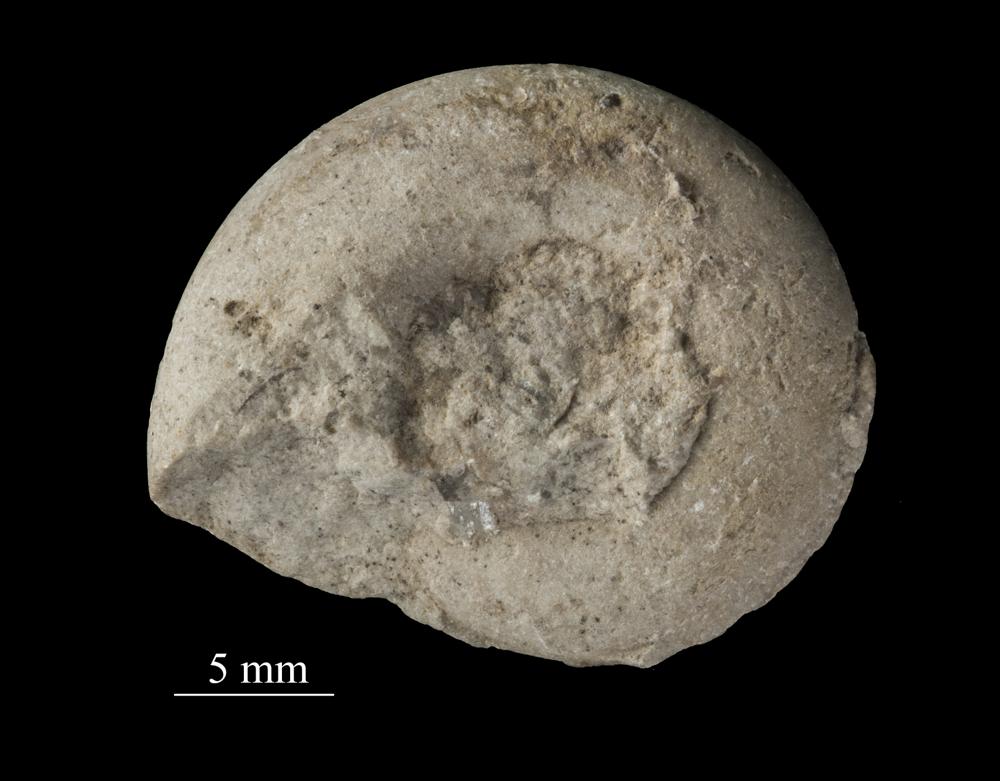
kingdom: Animalia
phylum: Mollusca
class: Gastropoda
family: Euomphalidae
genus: Ecculiomphalus
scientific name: Ecculiomphalus
